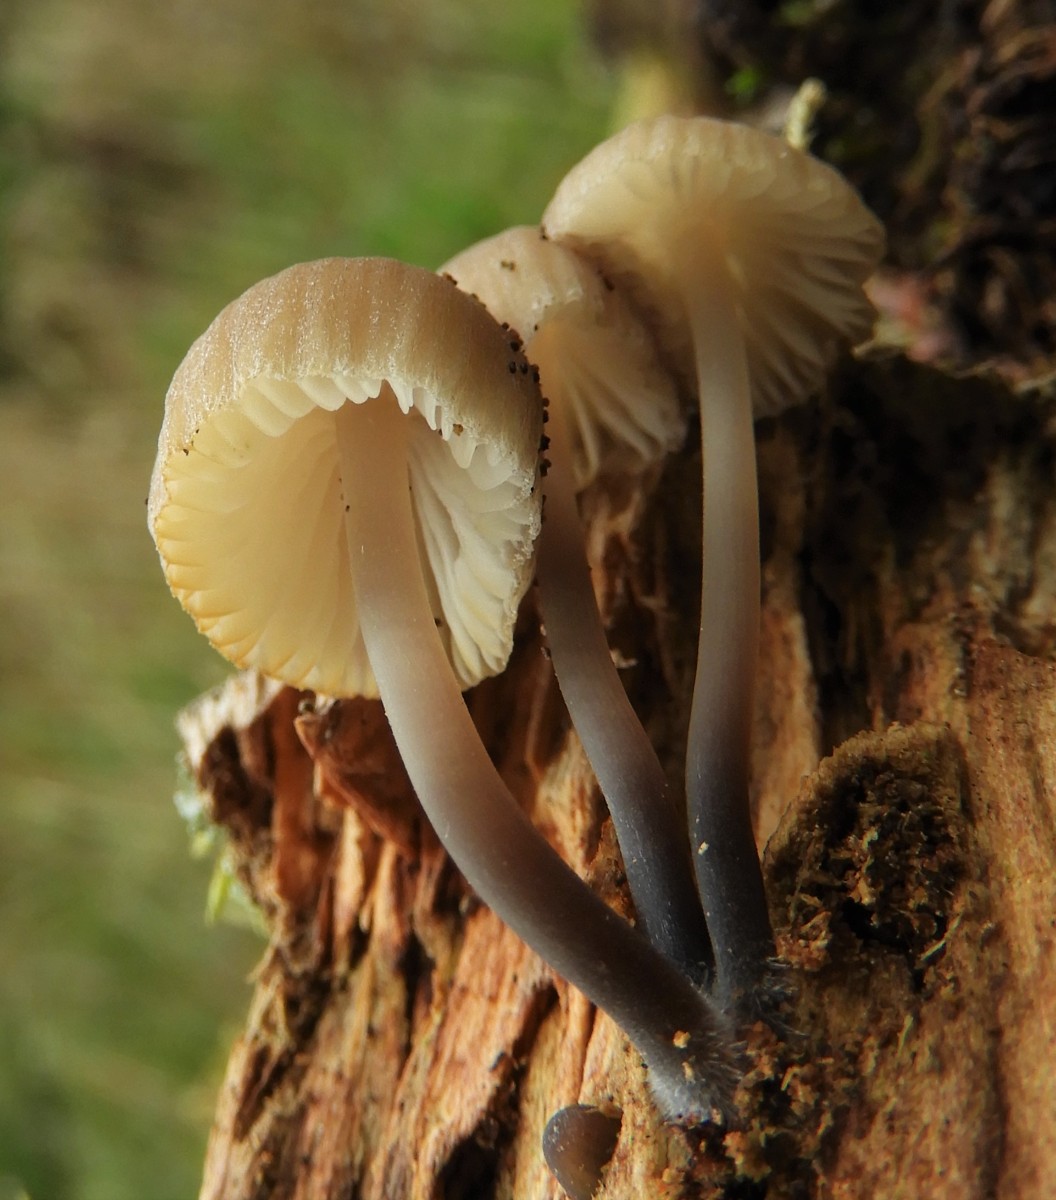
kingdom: Fungi
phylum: Basidiomycota
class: Agaricomycetes
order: Agaricales
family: Mycenaceae
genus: Mycena
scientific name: Mycena arcangeliana
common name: oliven-huesvamp
